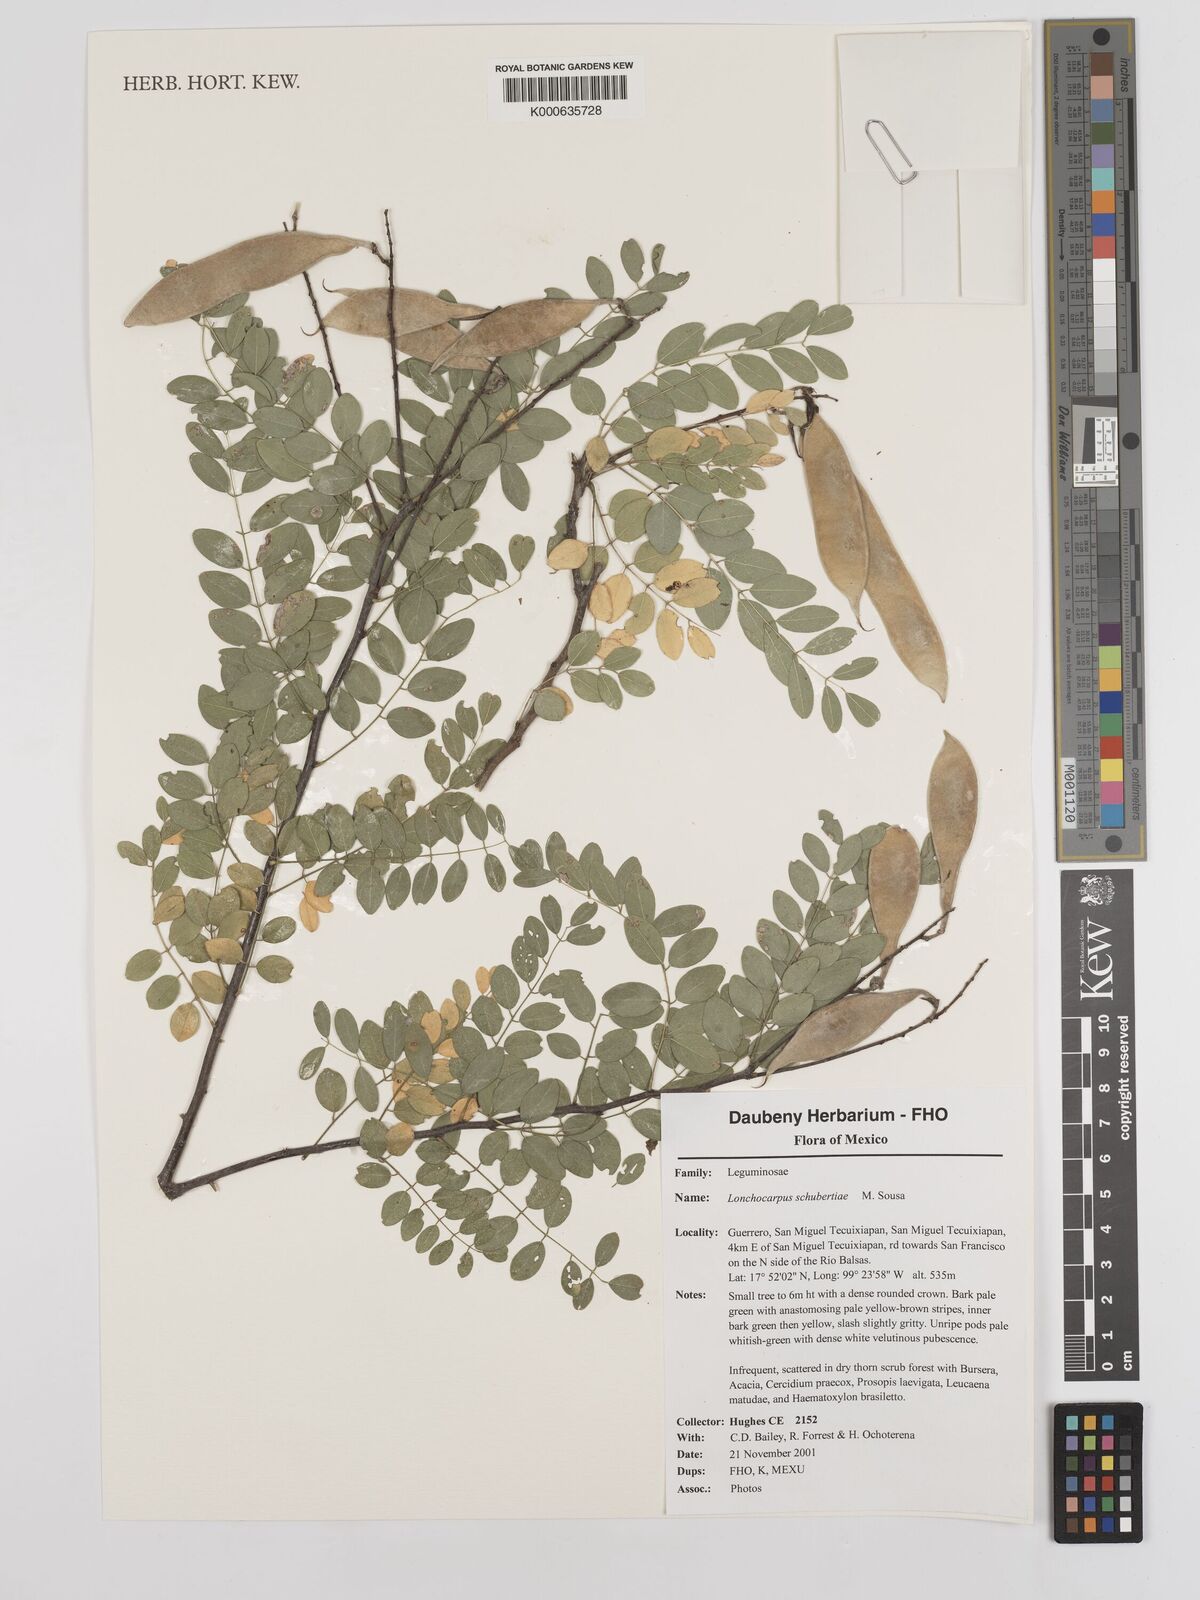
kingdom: Plantae
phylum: Tracheophyta
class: Magnoliopsida
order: Fabales
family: Fabaceae
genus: Lonchocarpus
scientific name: Lonchocarpus schubertiae
